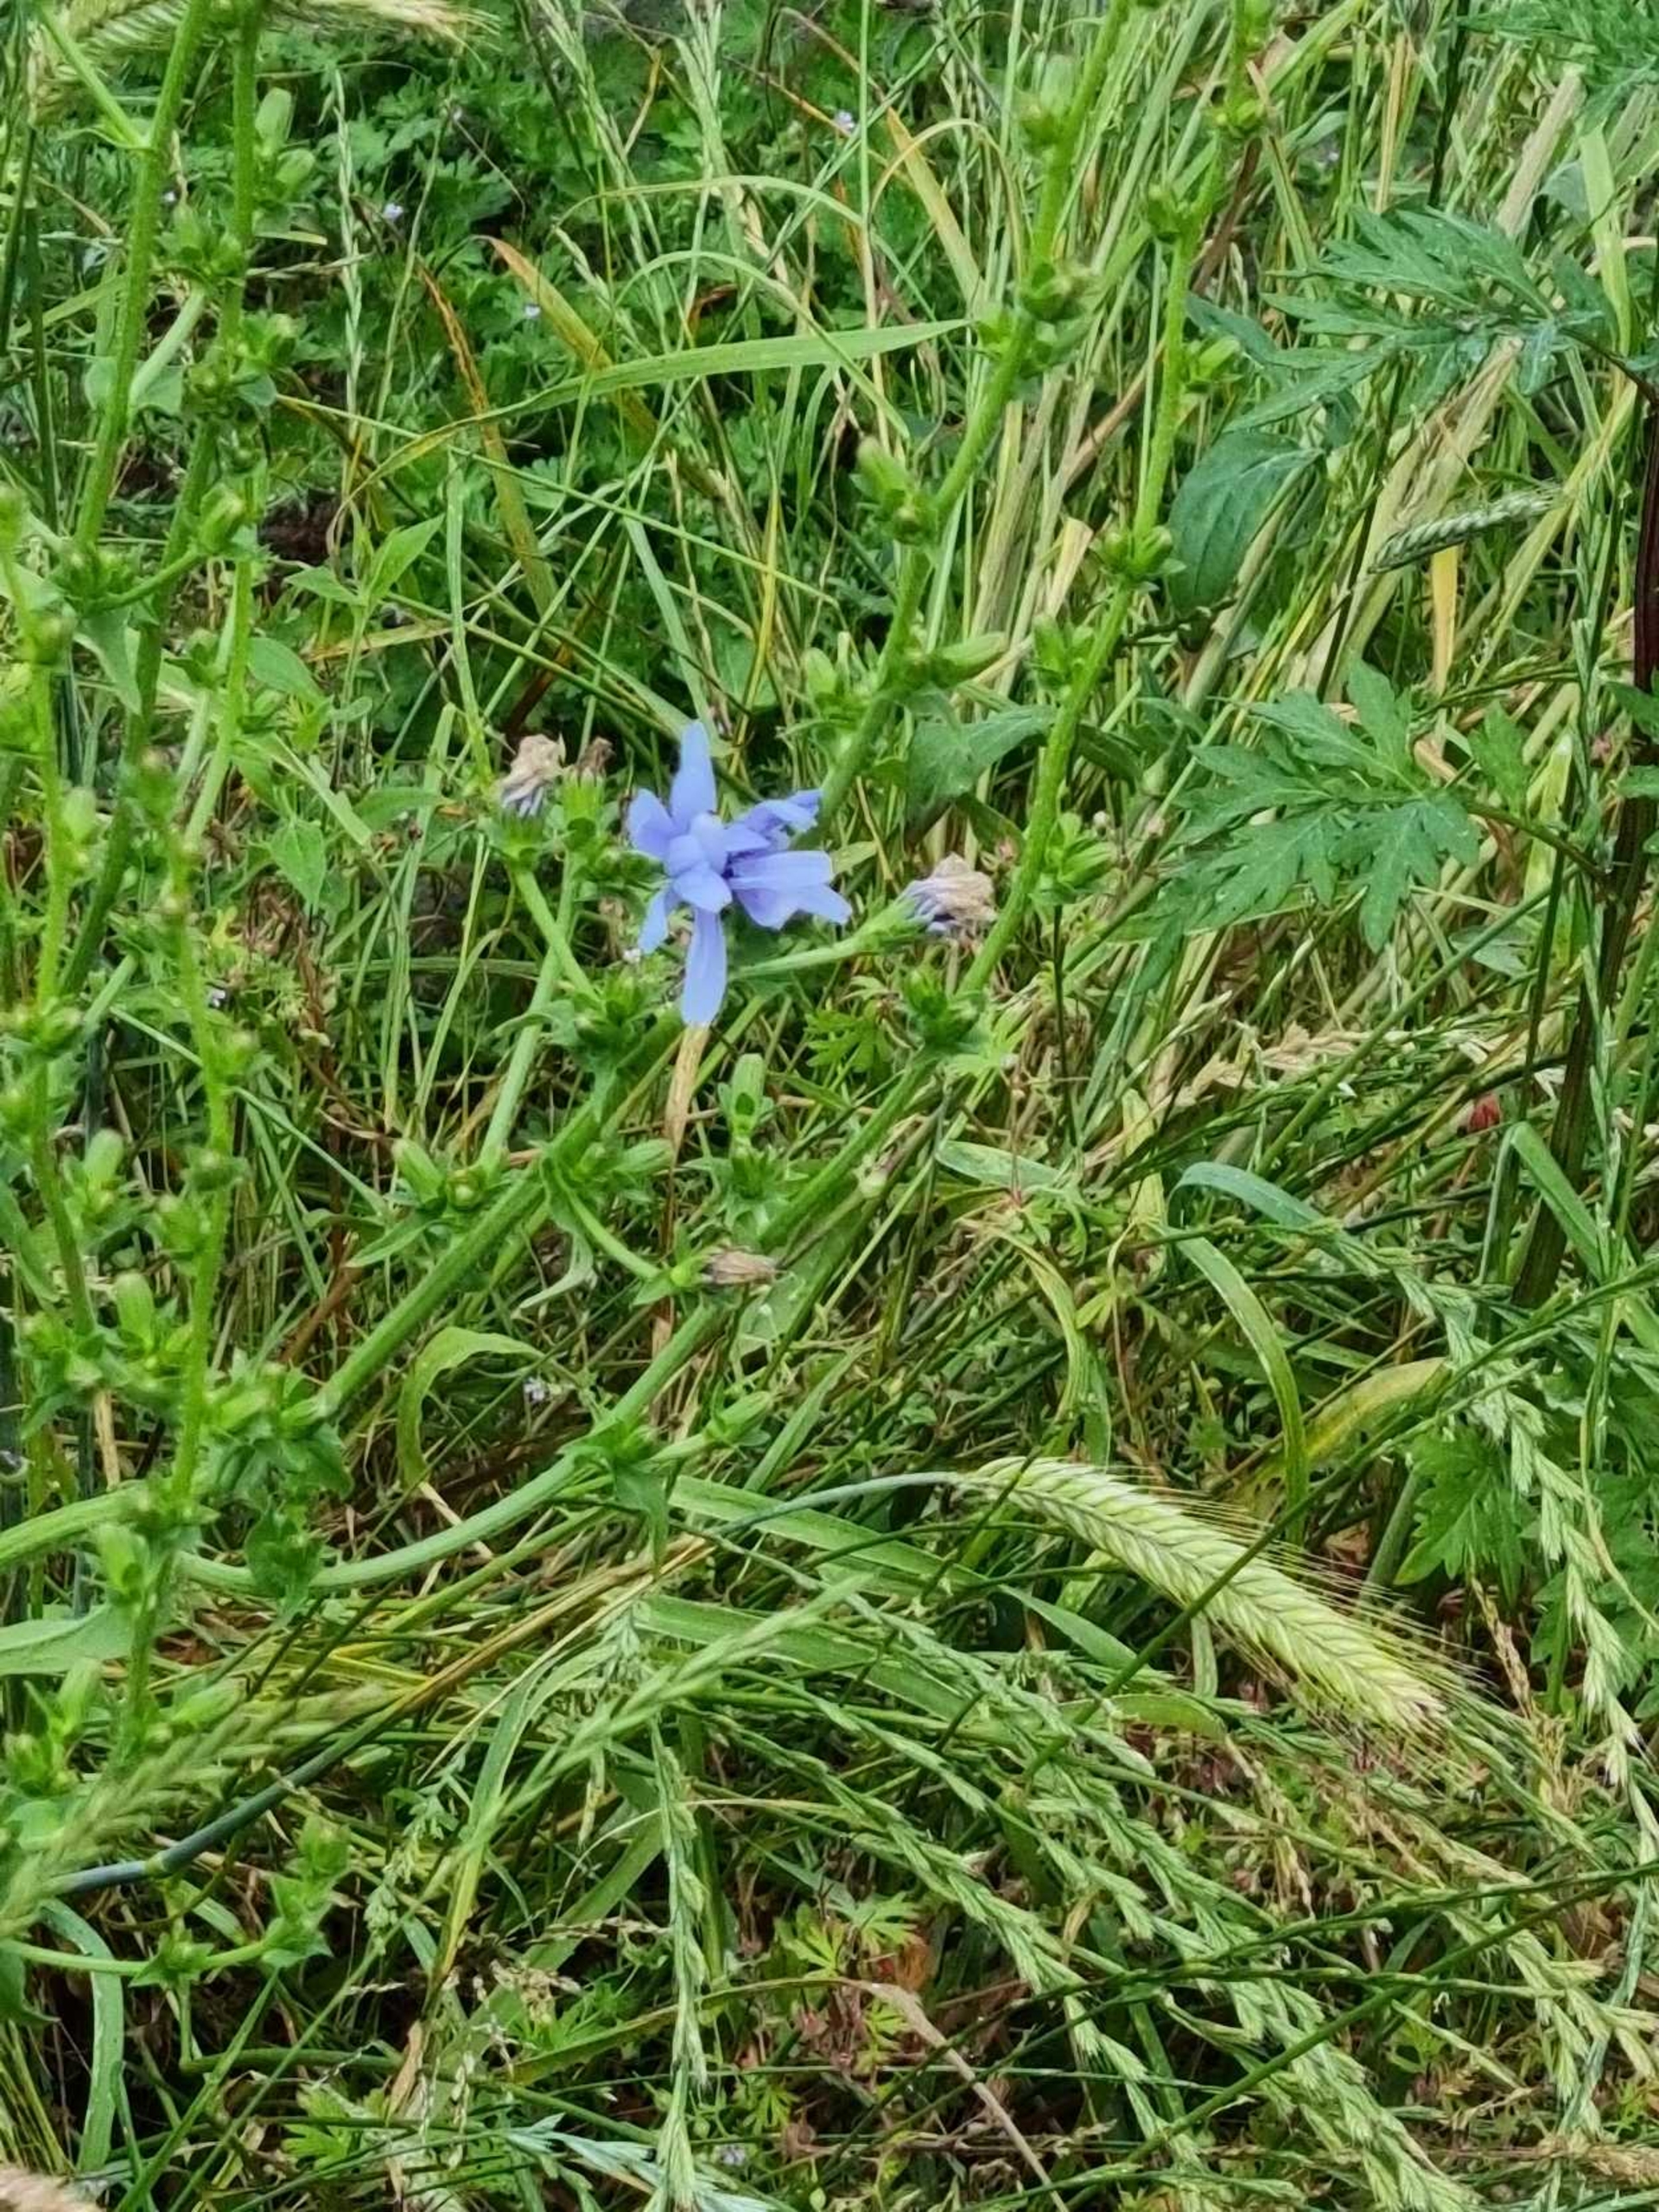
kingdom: Plantae
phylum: Tracheophyta
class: Magnoliopsida
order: Asterales
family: Asteraceae
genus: Cichorium
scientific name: Cichorium intybus
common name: Cikorie
